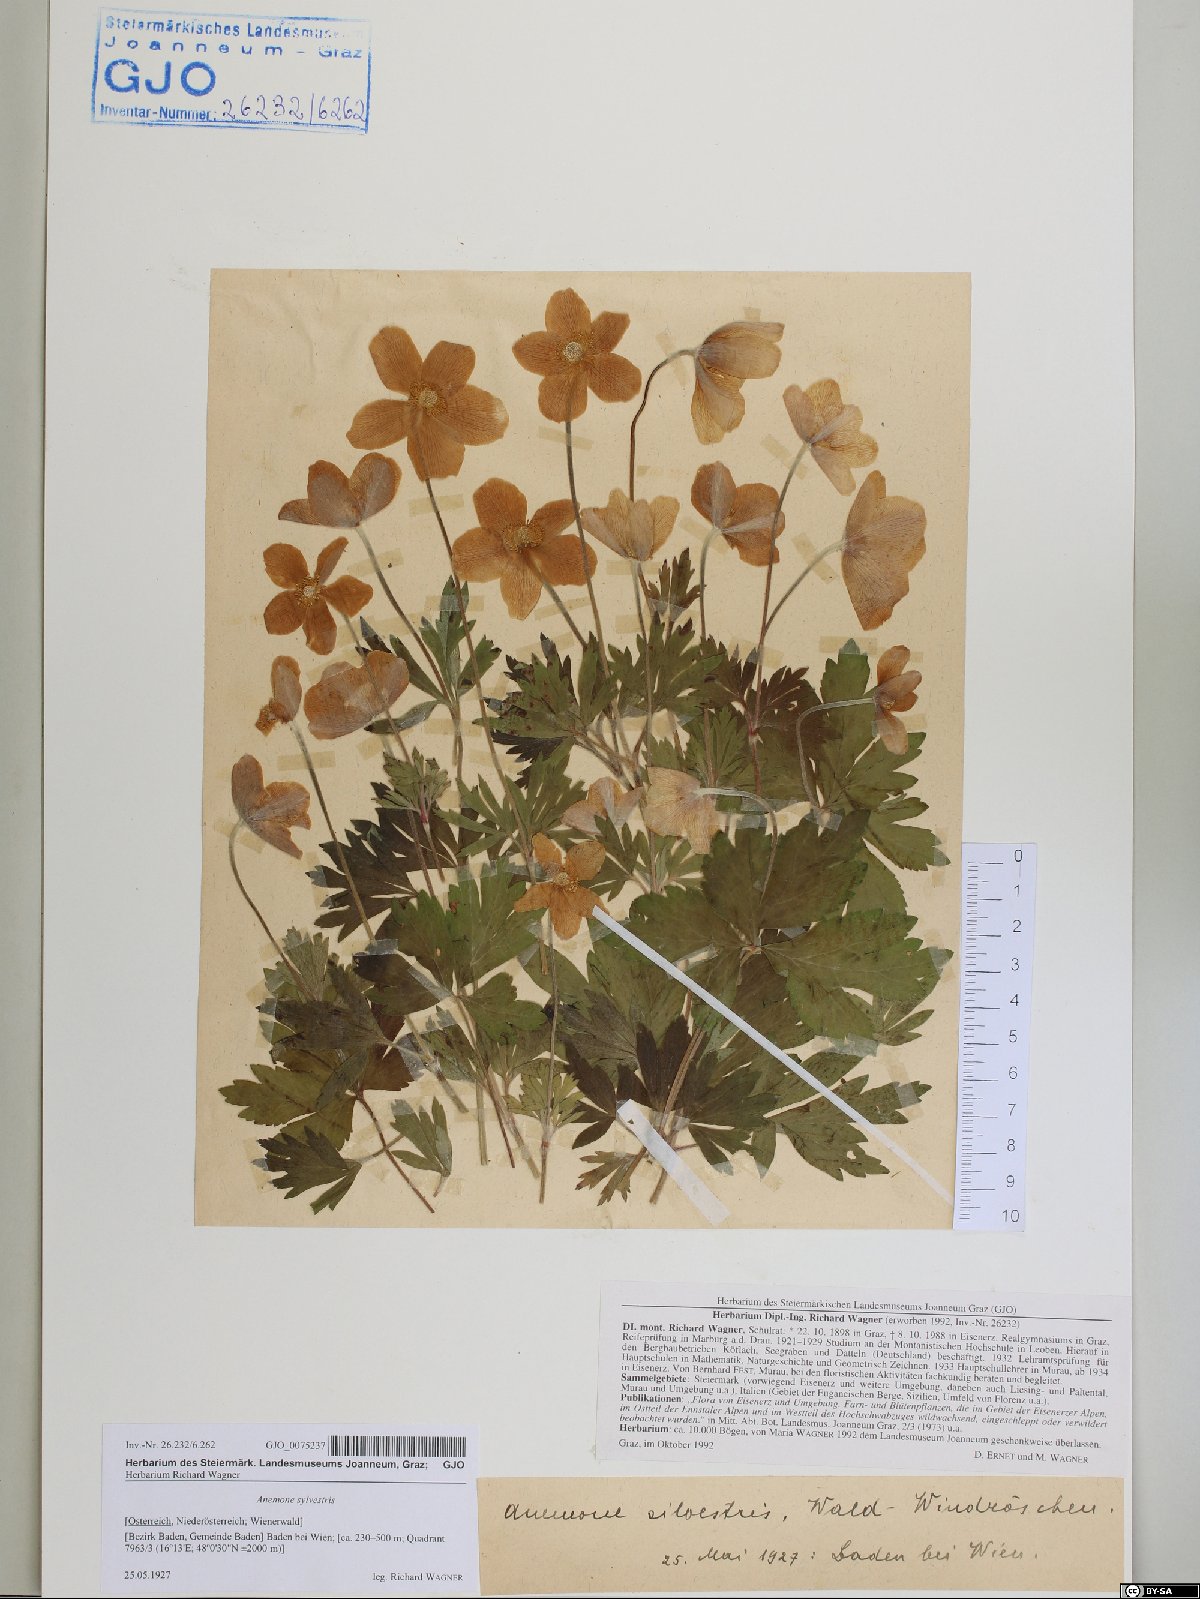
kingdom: Plantae
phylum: Tracheophyta
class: Magnoliopsida
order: Ranunculales
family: Ranunculaceae
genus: Anemone
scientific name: Anemone sylvestris
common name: Snowdrop anemone
